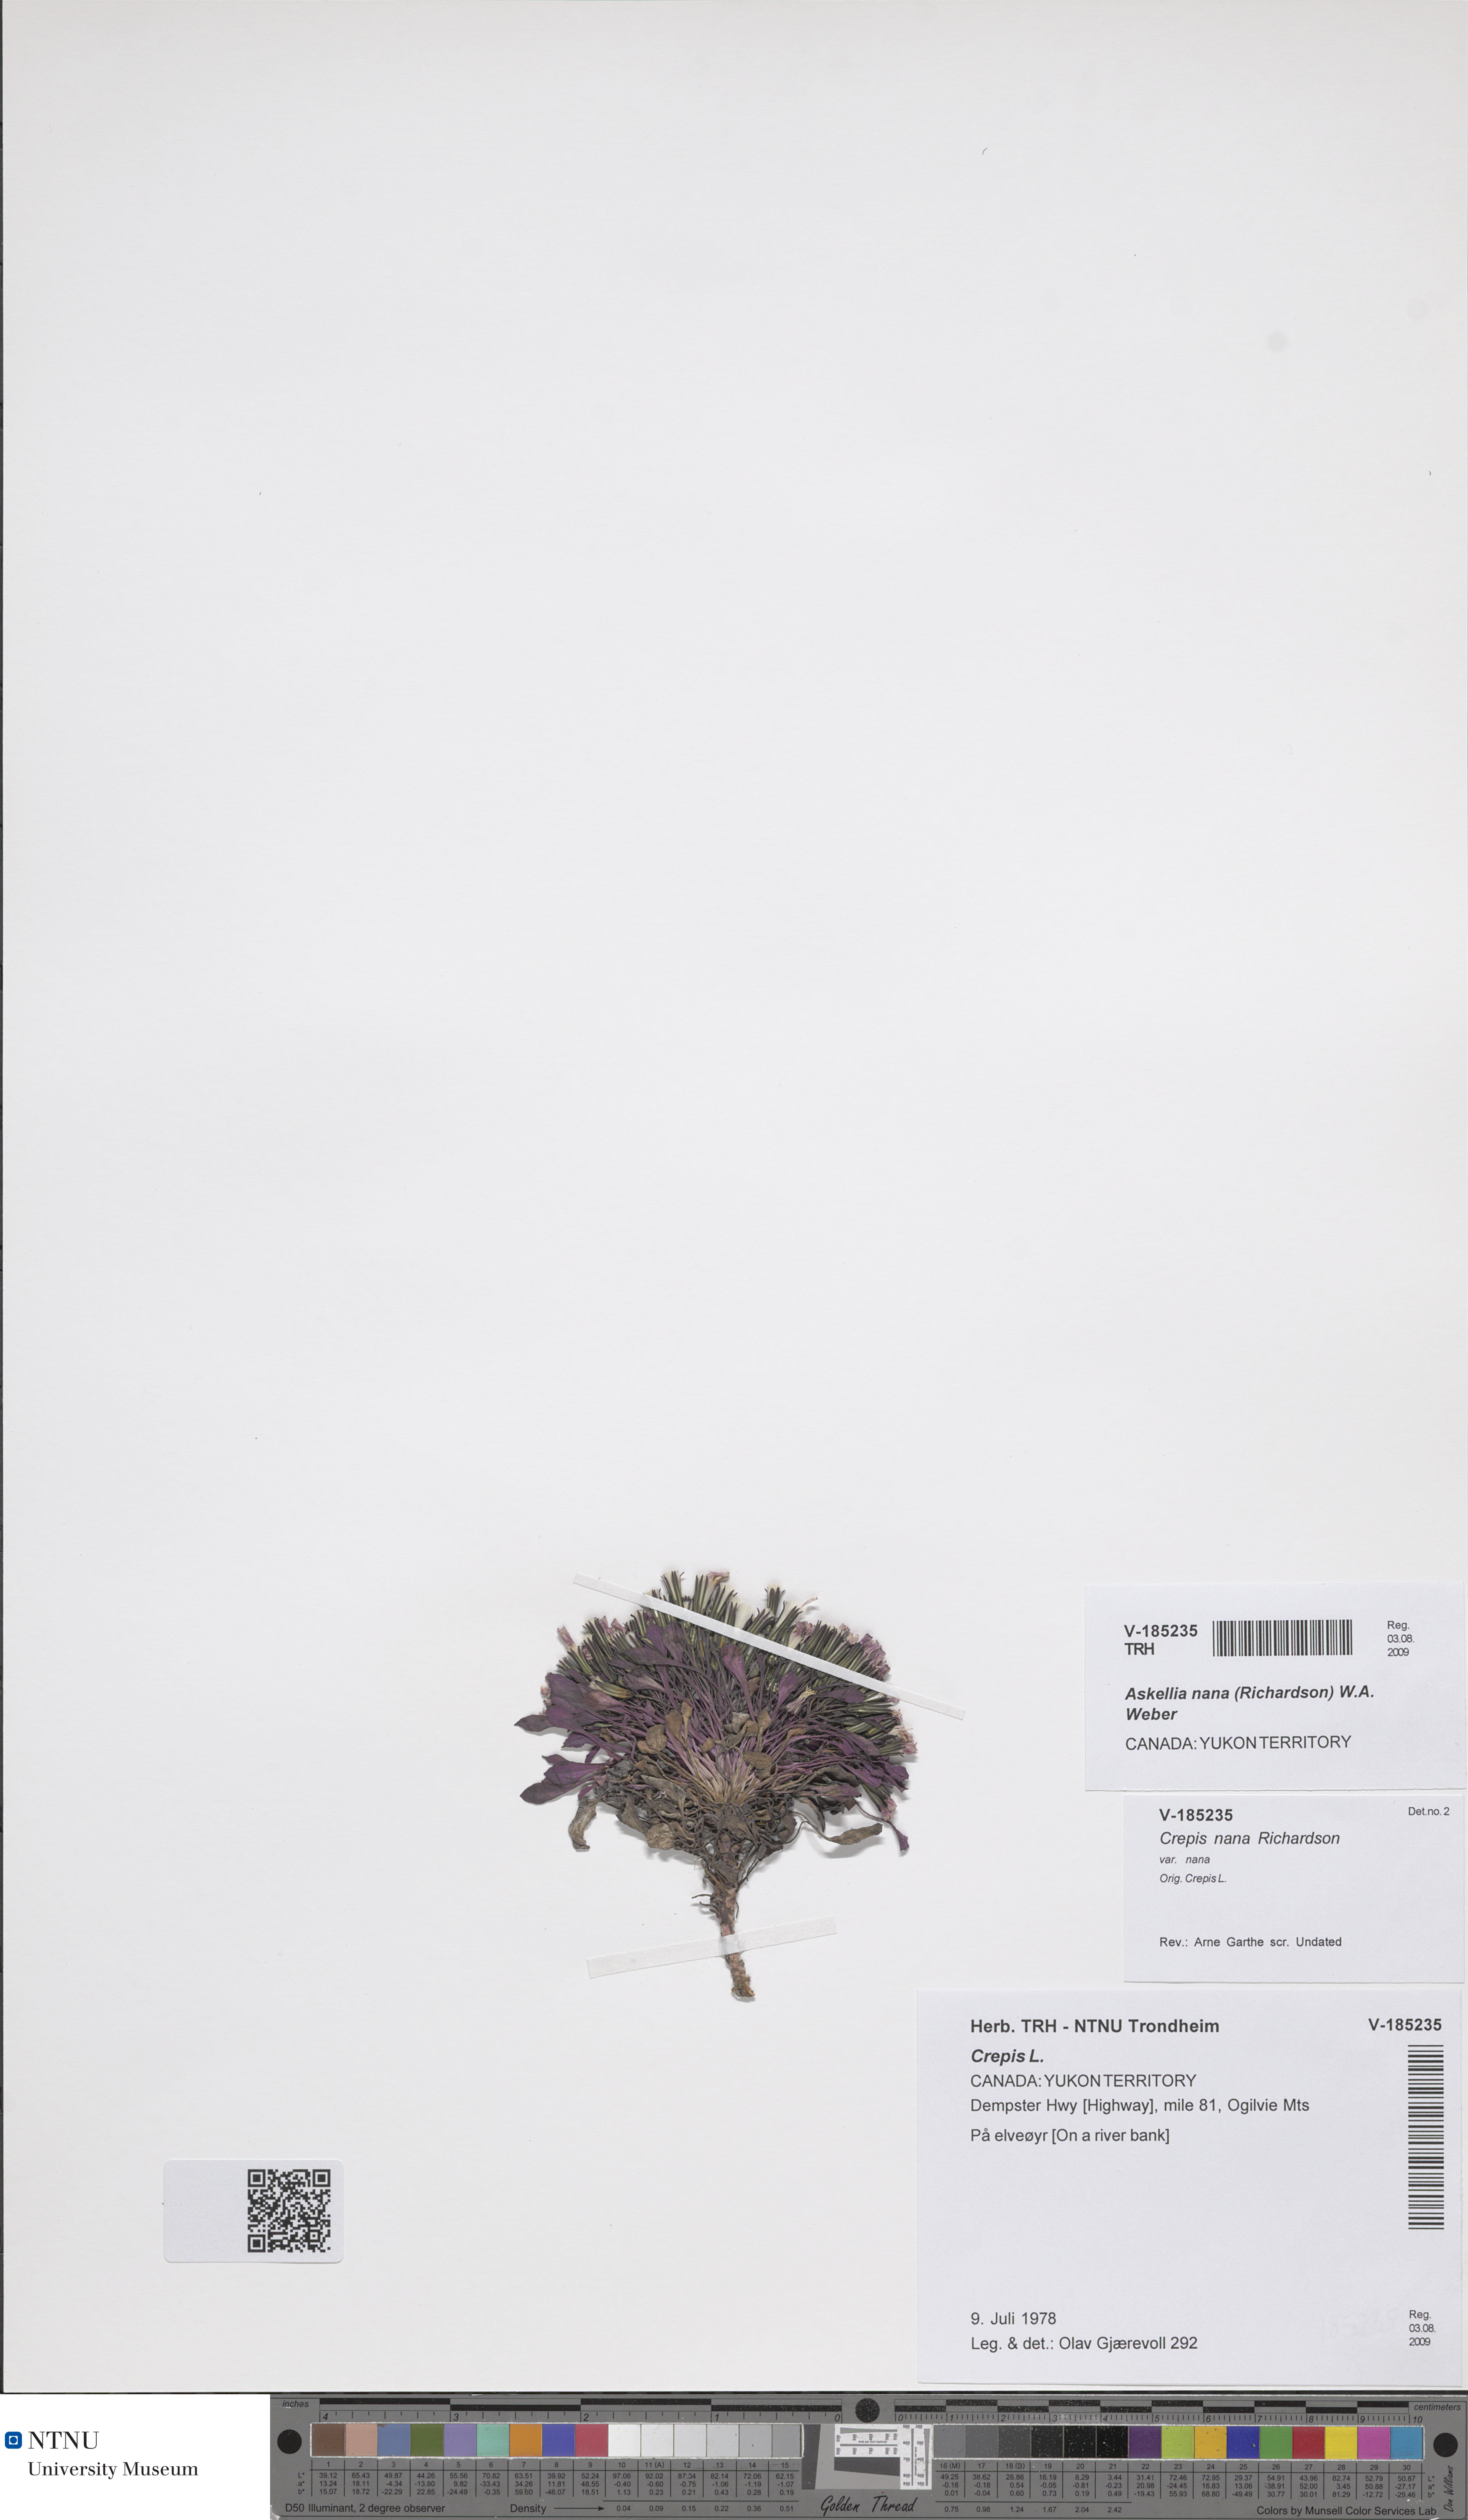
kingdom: Plantae
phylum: Tracheophyta
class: Magnoliopsida
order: Asterales
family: Asteraceae
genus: Askellia
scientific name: Askellia pygmaea
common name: Dwarf alpine hawksbeard
